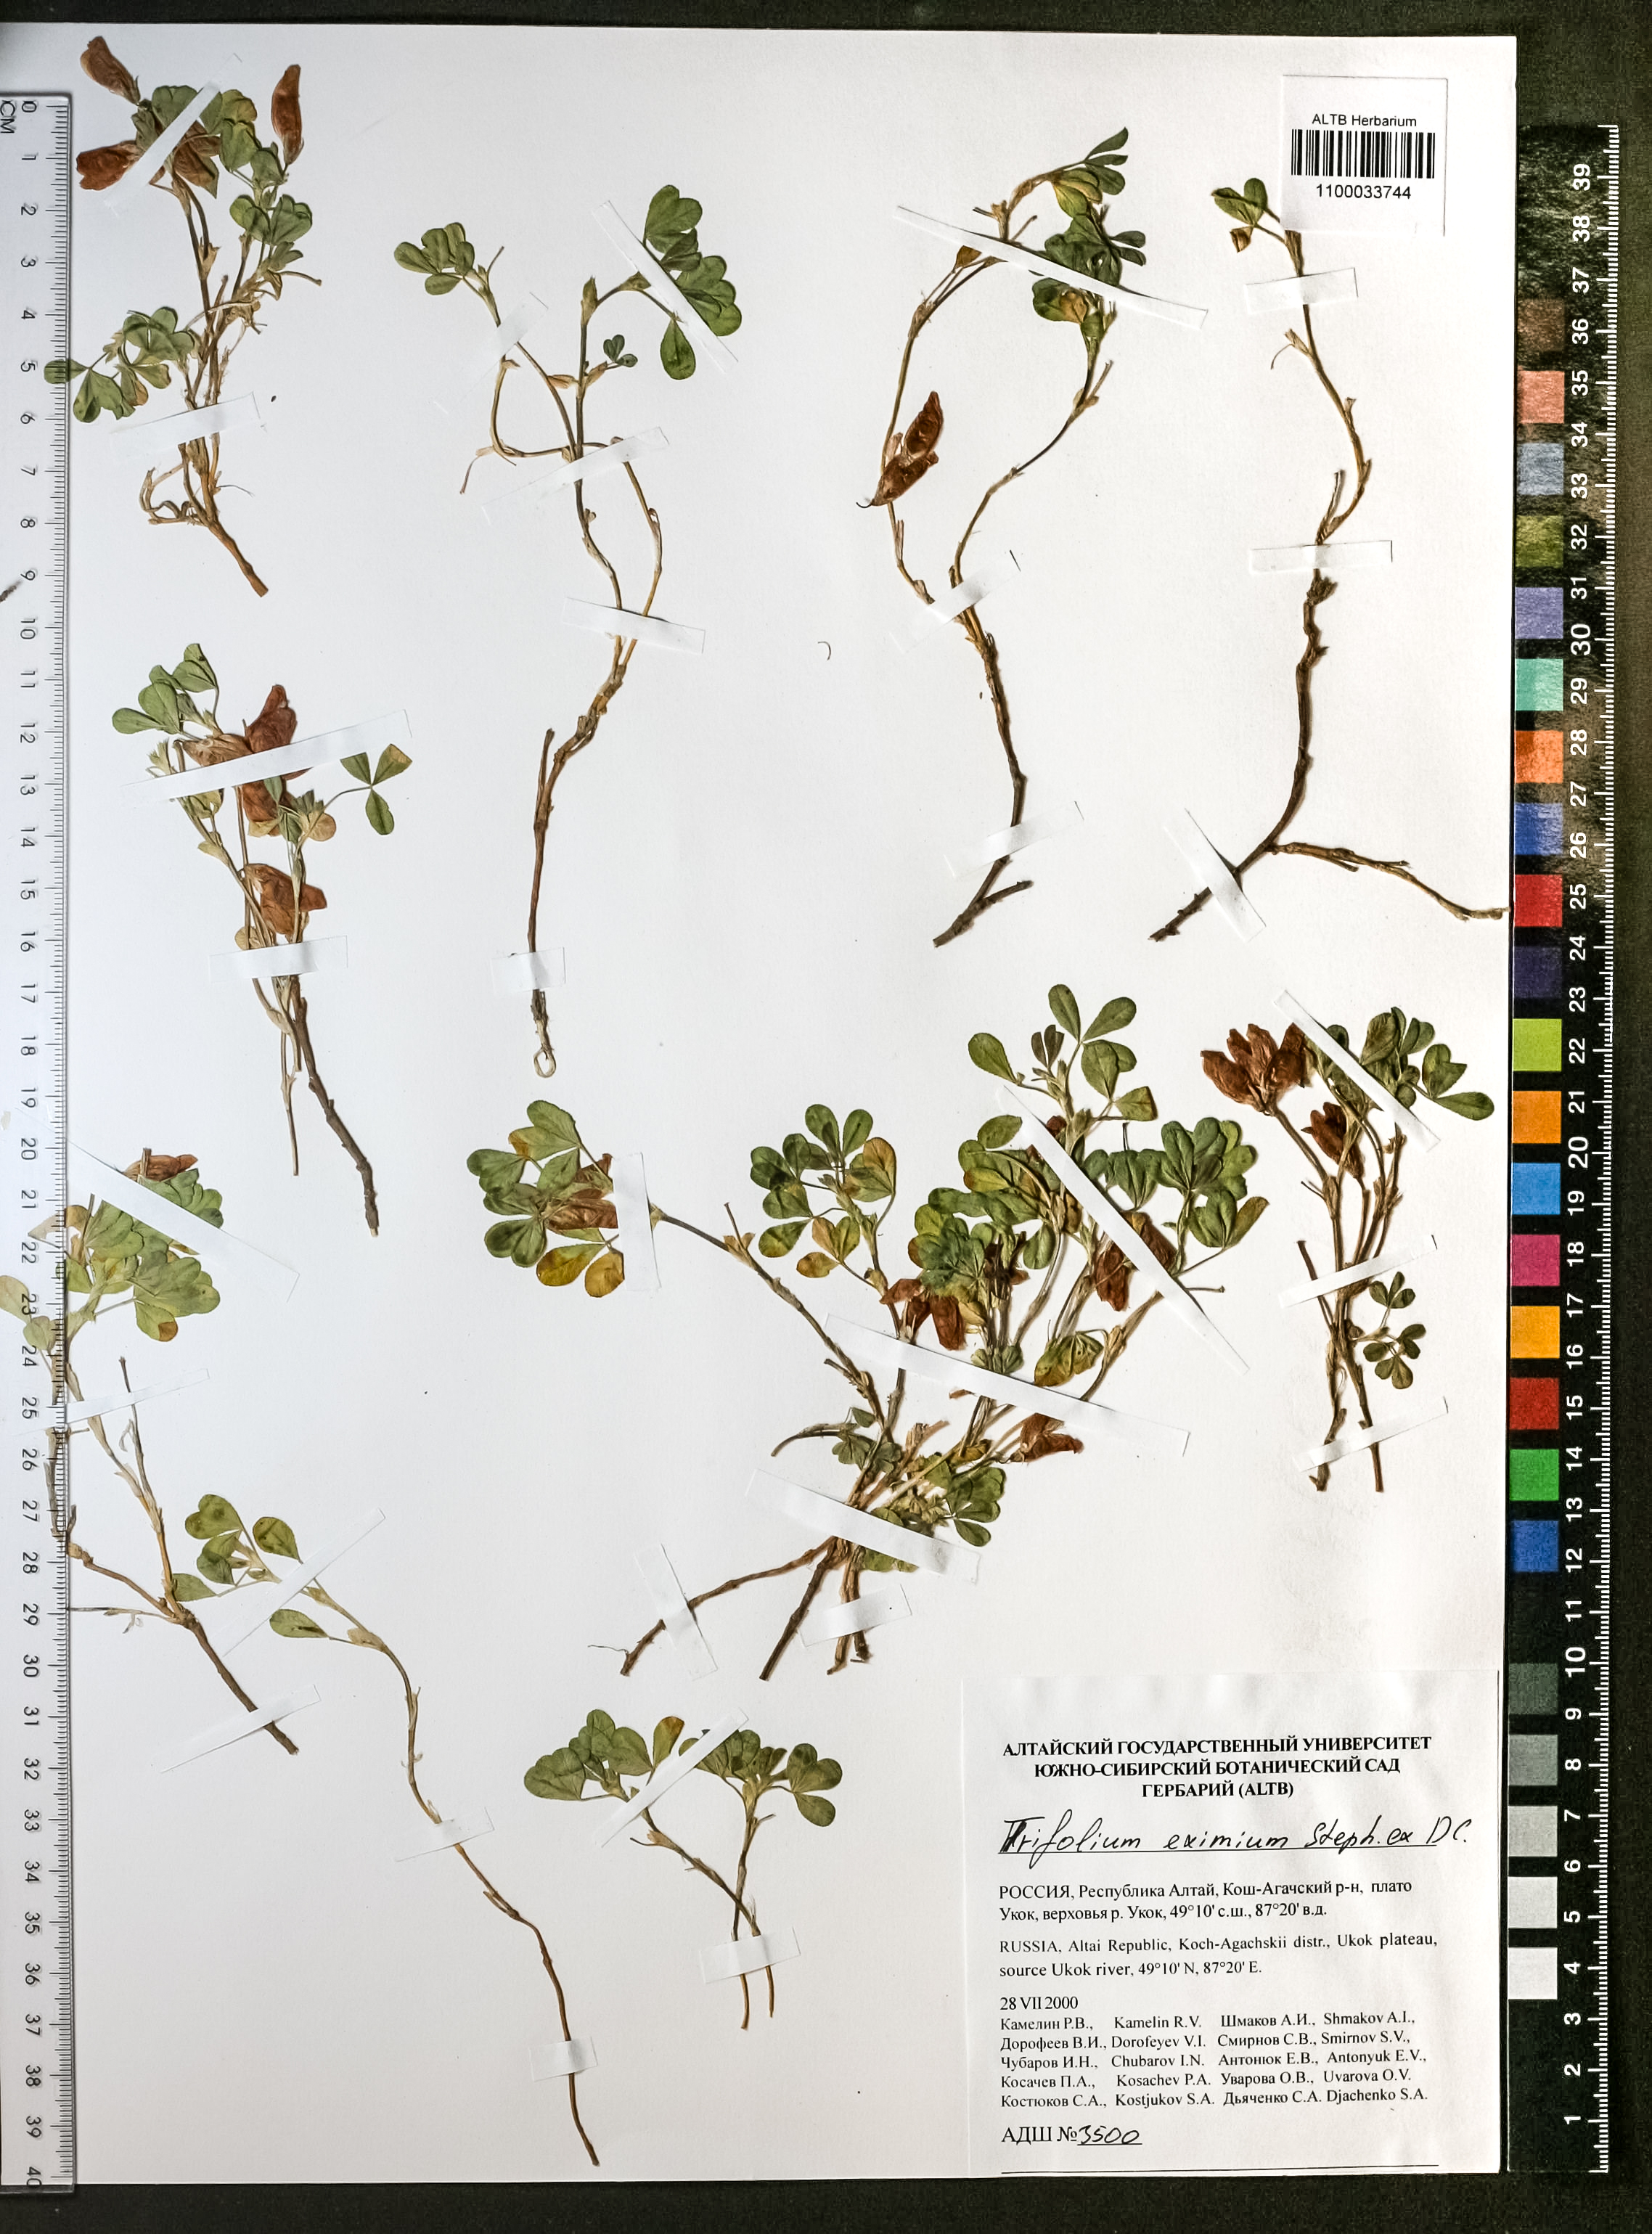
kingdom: Plantae
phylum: Tracheophyta
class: Magnoliopsida
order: Fabales
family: Fabaceae
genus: Trifolium
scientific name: Trifolium eximium
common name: Excellent clover
